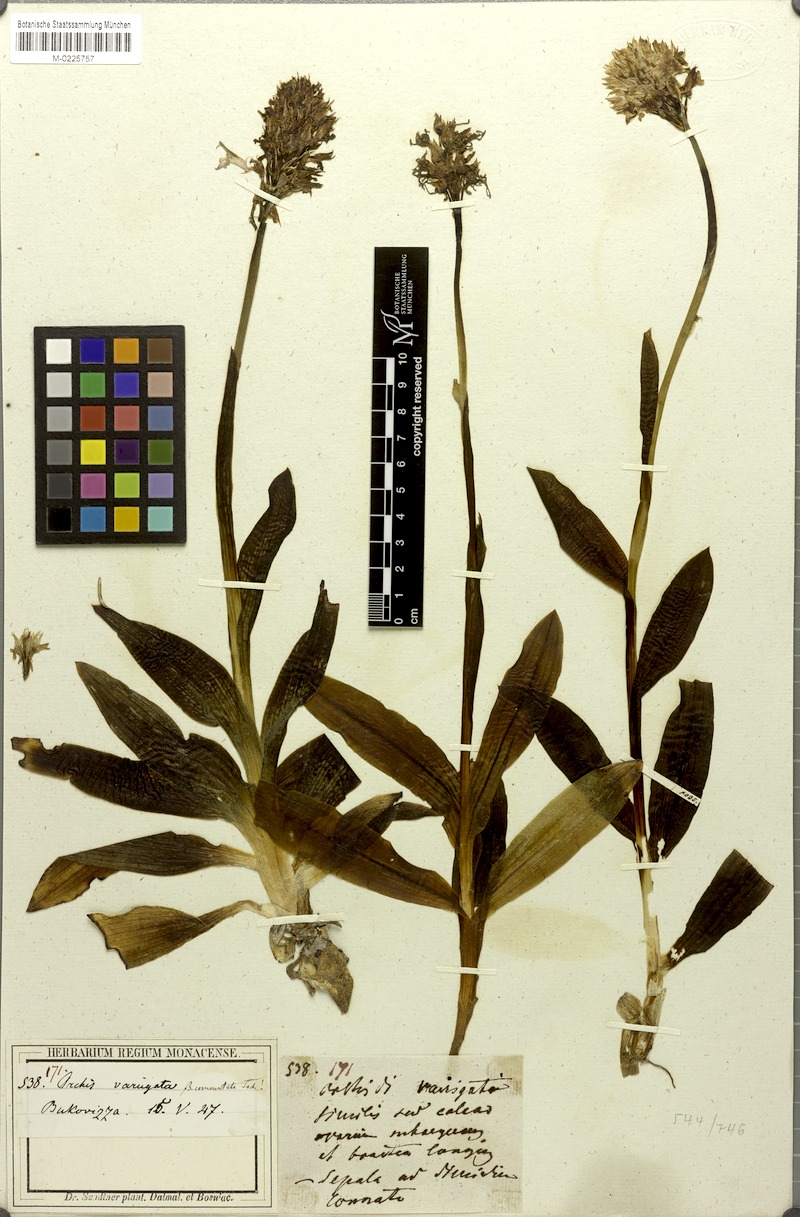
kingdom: Plantae
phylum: Tracheophyta
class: Liliopsida
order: Asparagales
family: Orchidaceae
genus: Neotinea
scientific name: Neotinea tridentata
